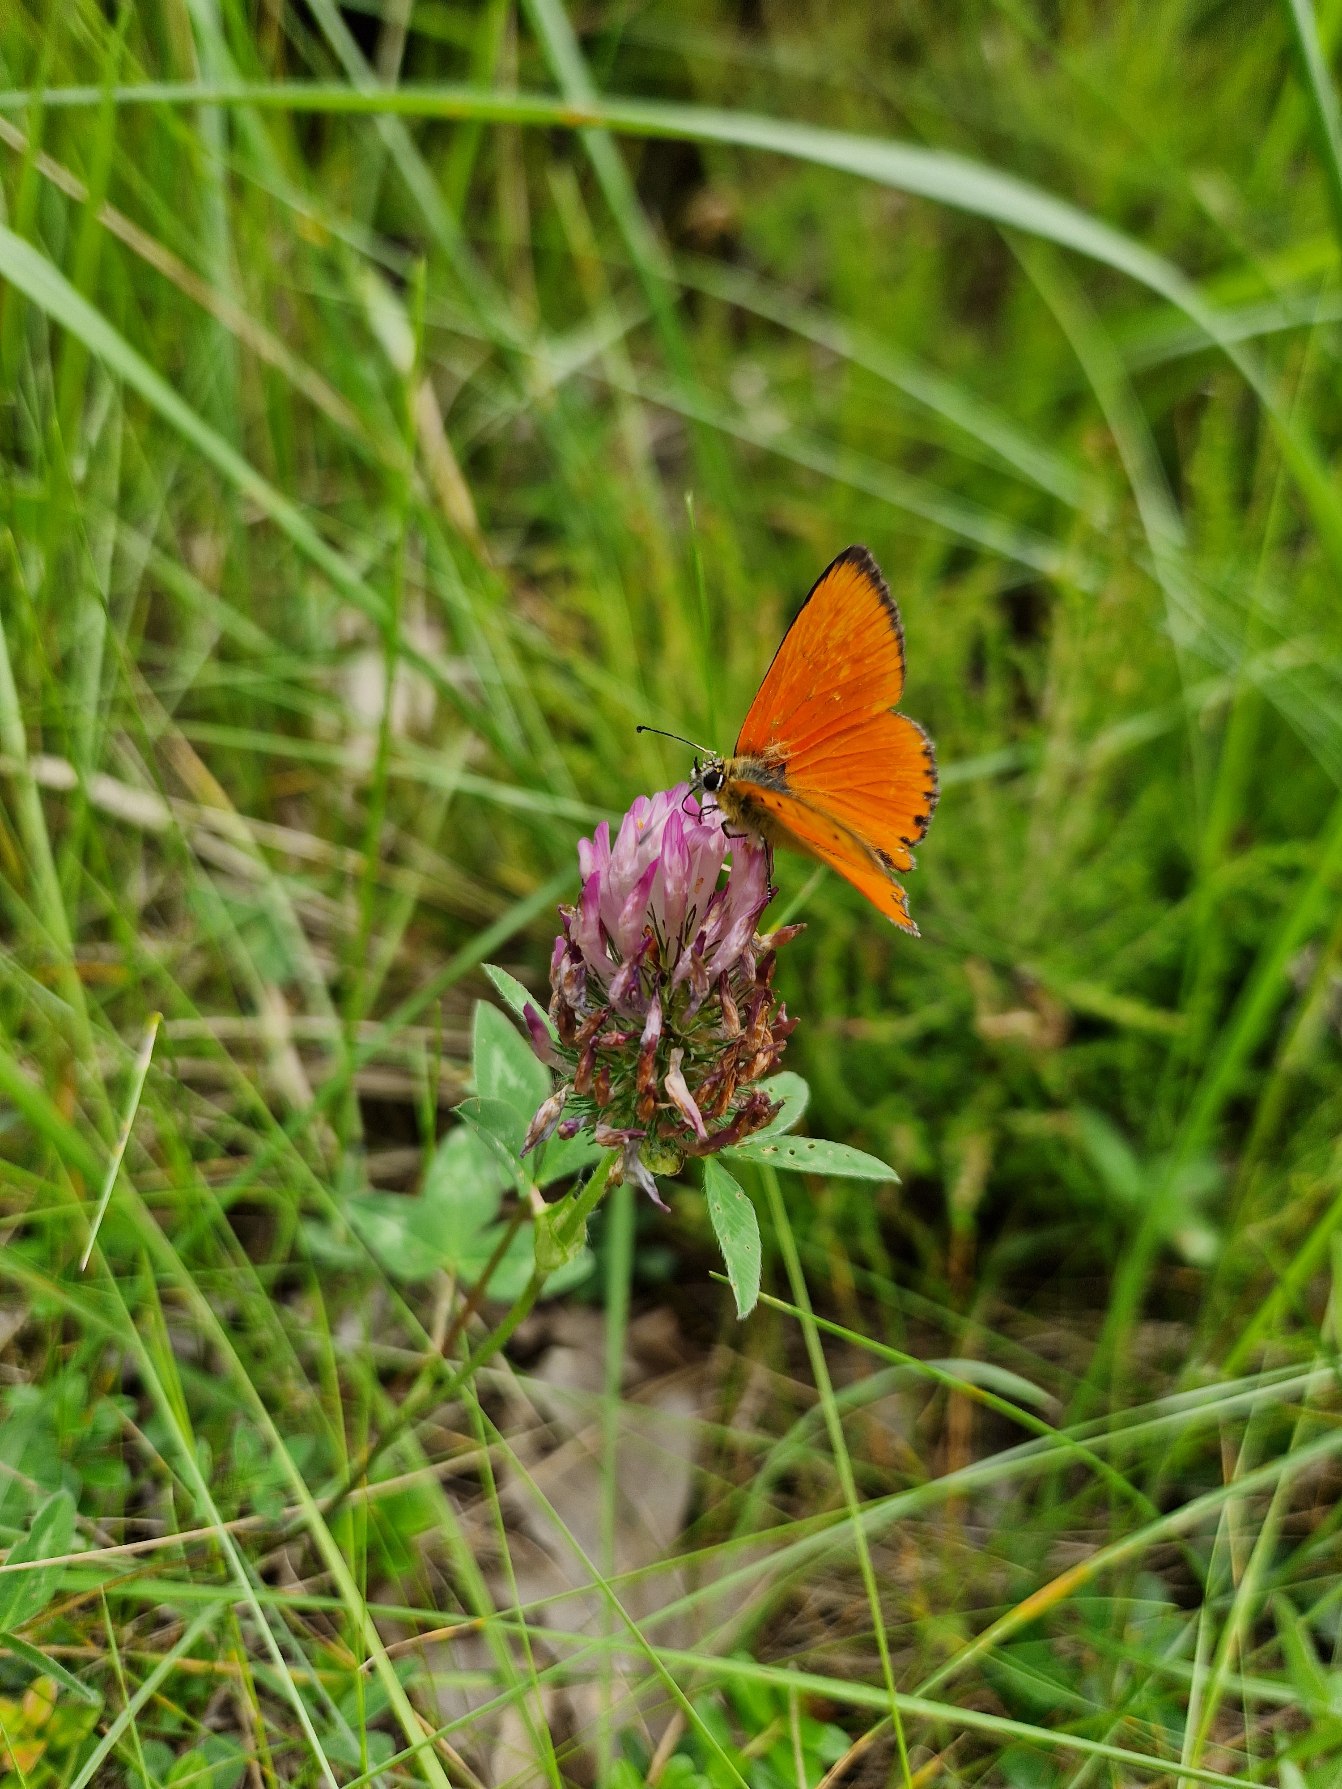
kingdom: Animalia
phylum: Arthropoda
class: Insecta
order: Lepidoptera
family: Lycaenidae
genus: Lycaena
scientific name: Lycaena virgaureae
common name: Dukatsommerfugl
